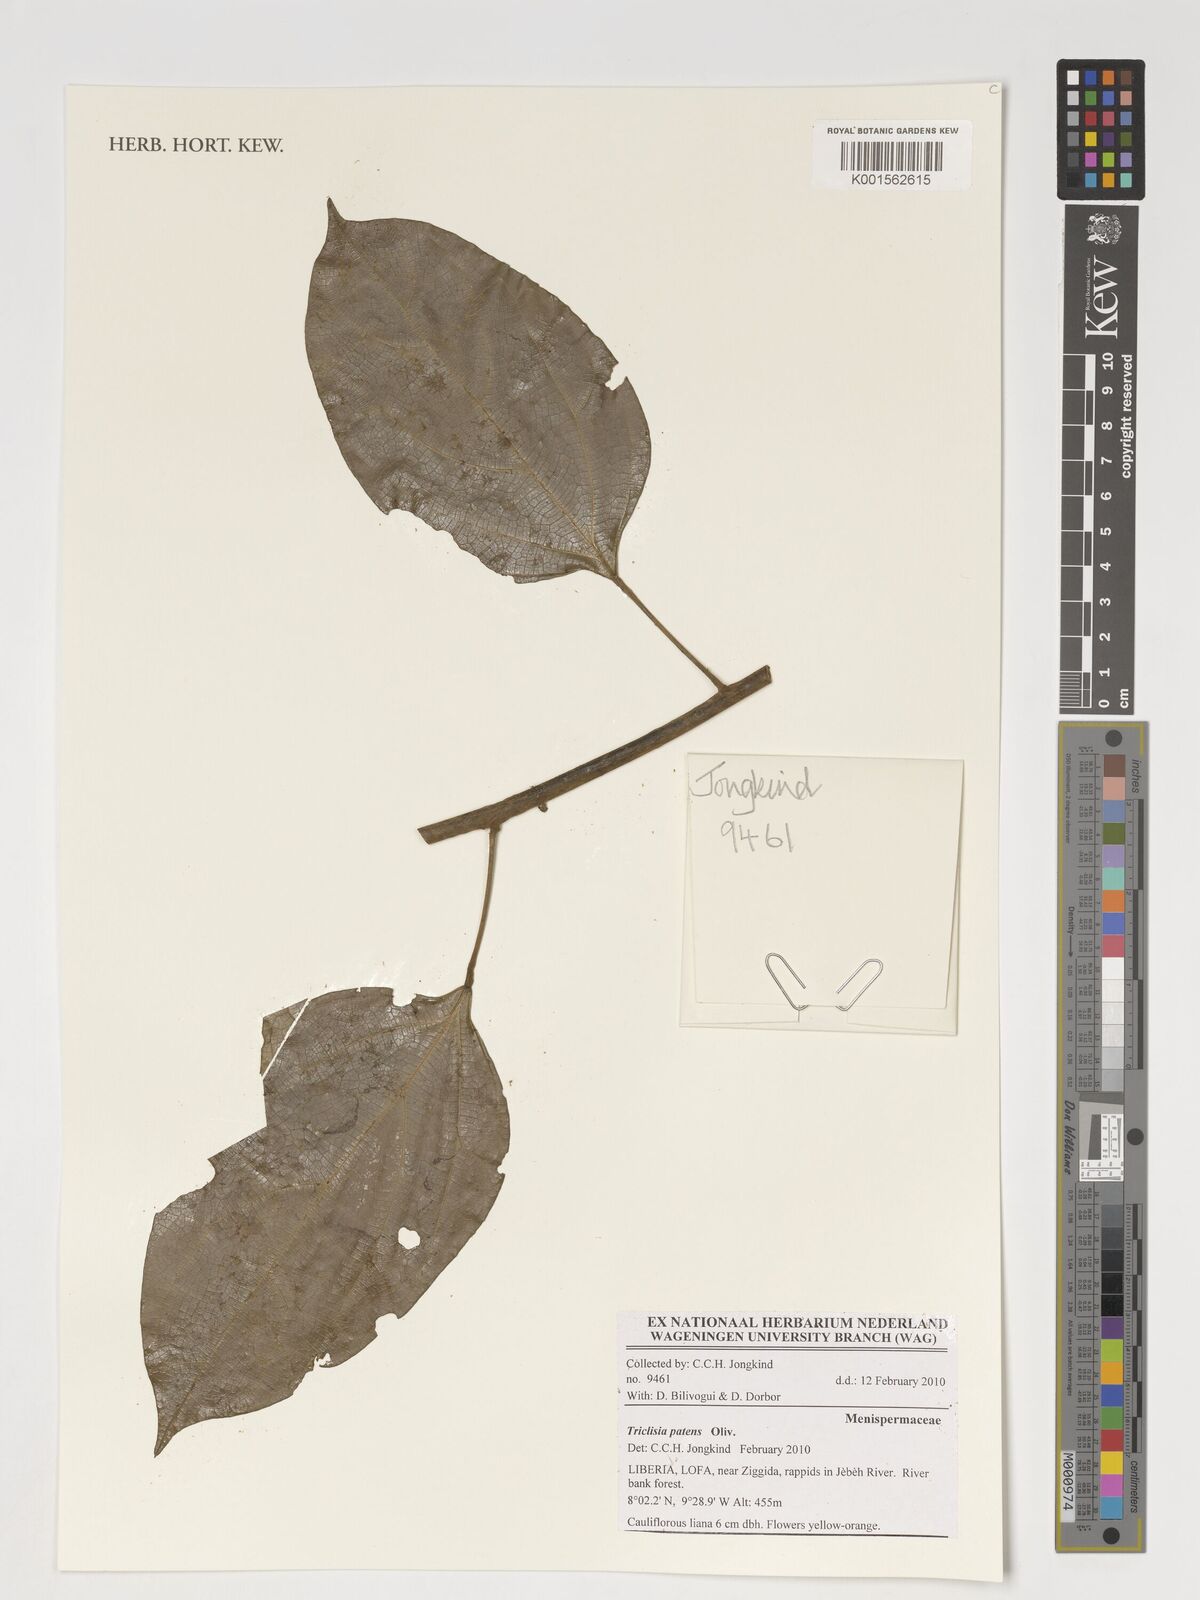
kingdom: Plantae
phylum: Tracheophyta
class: Magnoliopsida
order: Ranunculales
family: Menispermaceae
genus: Triclisia
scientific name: Triclisia patens
